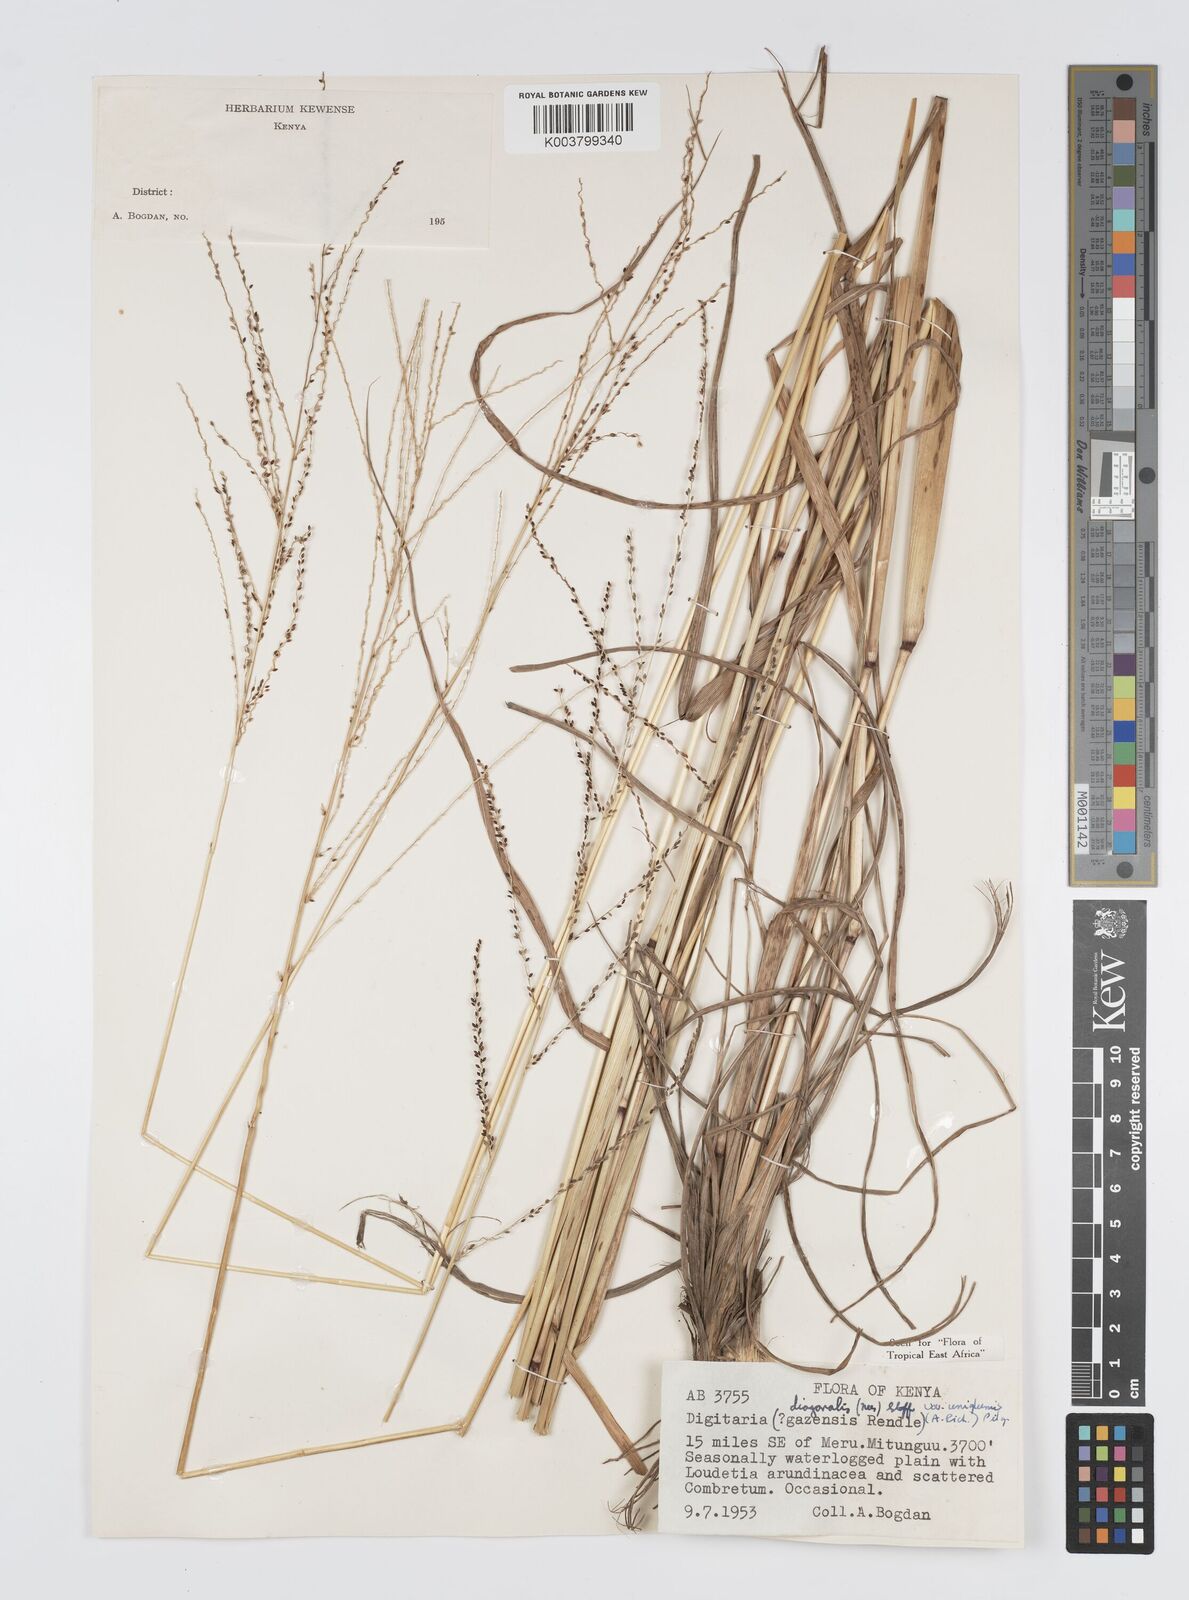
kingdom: Plantae
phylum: Tracheophyta
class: Liliopsida
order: Poales
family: Poaceae
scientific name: Poaceae
